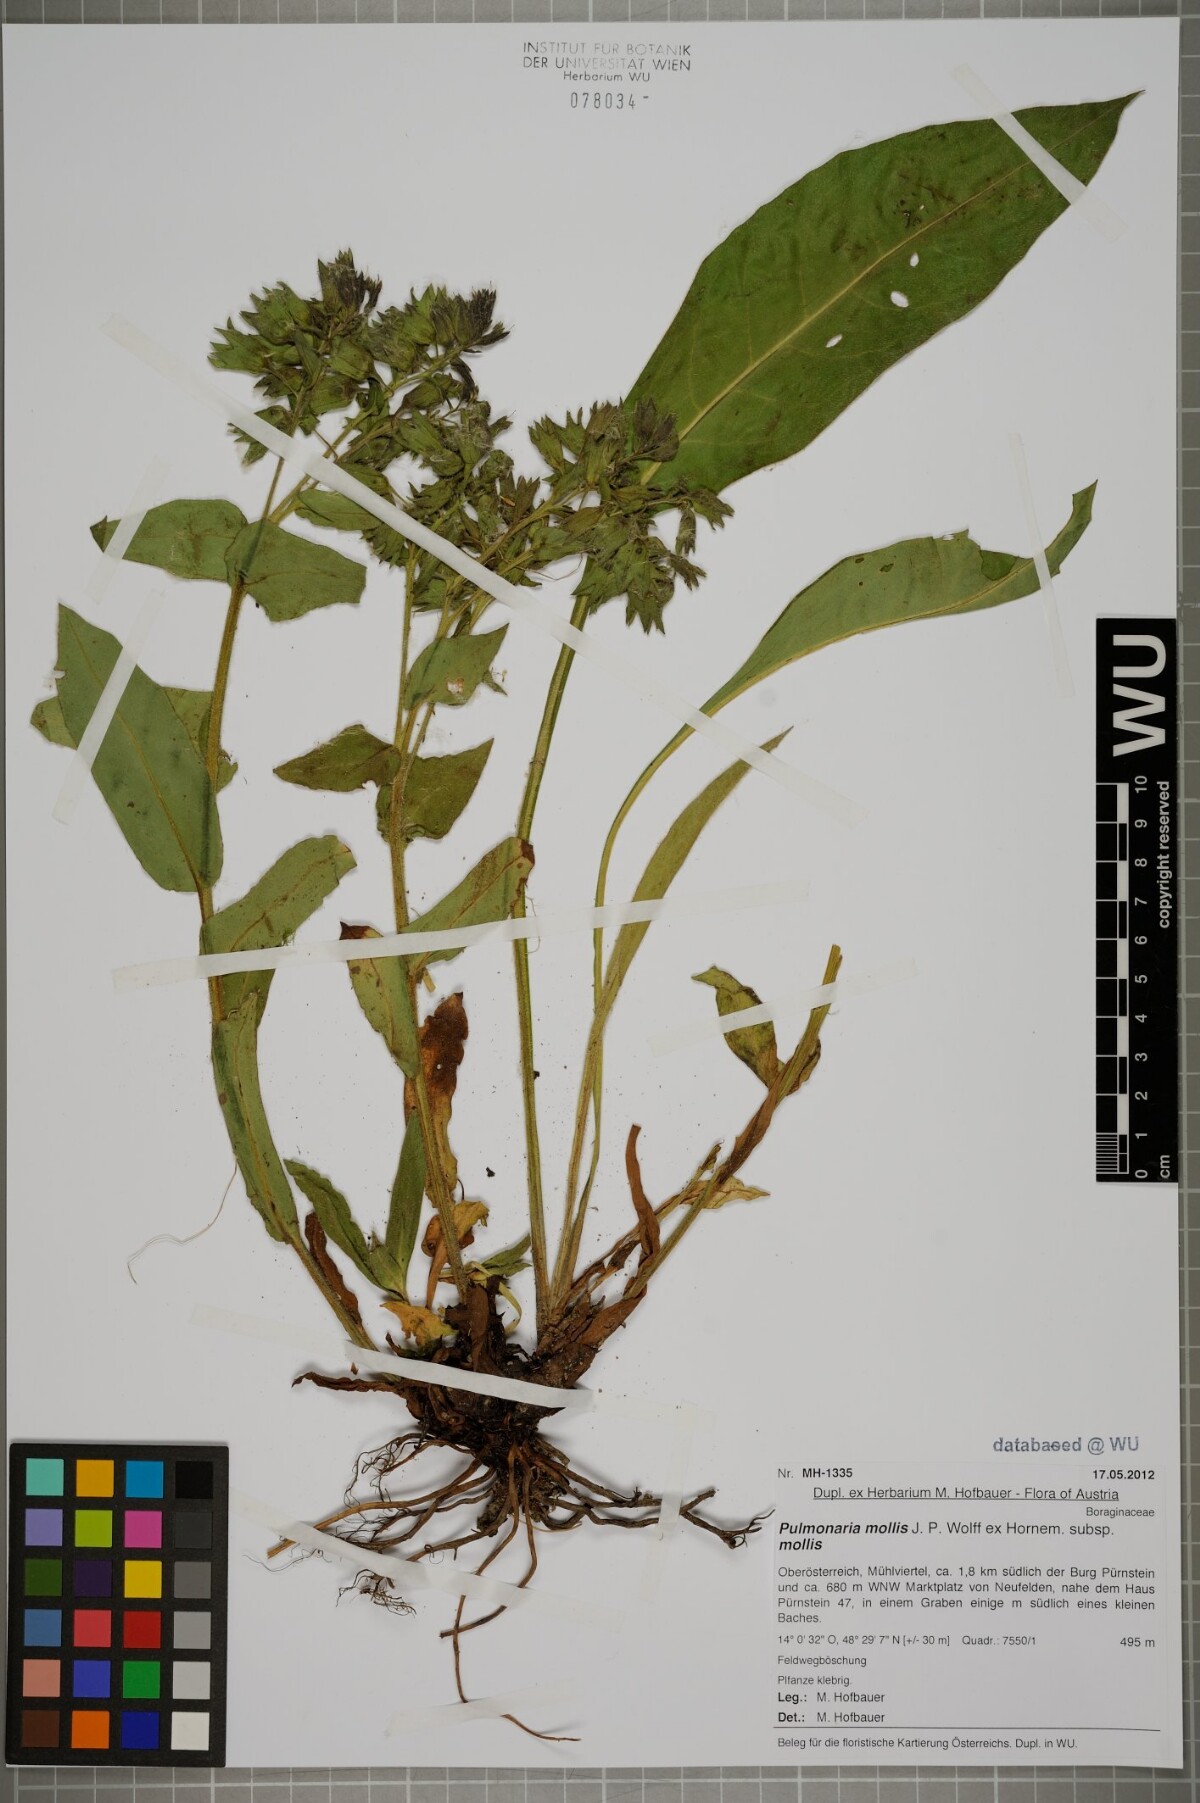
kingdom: Plantae
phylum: Tracheophyta
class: Magnoliopsida
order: Boraginales
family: Boraginaceae
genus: Pulmonaria
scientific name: Pulmonaria mollis
